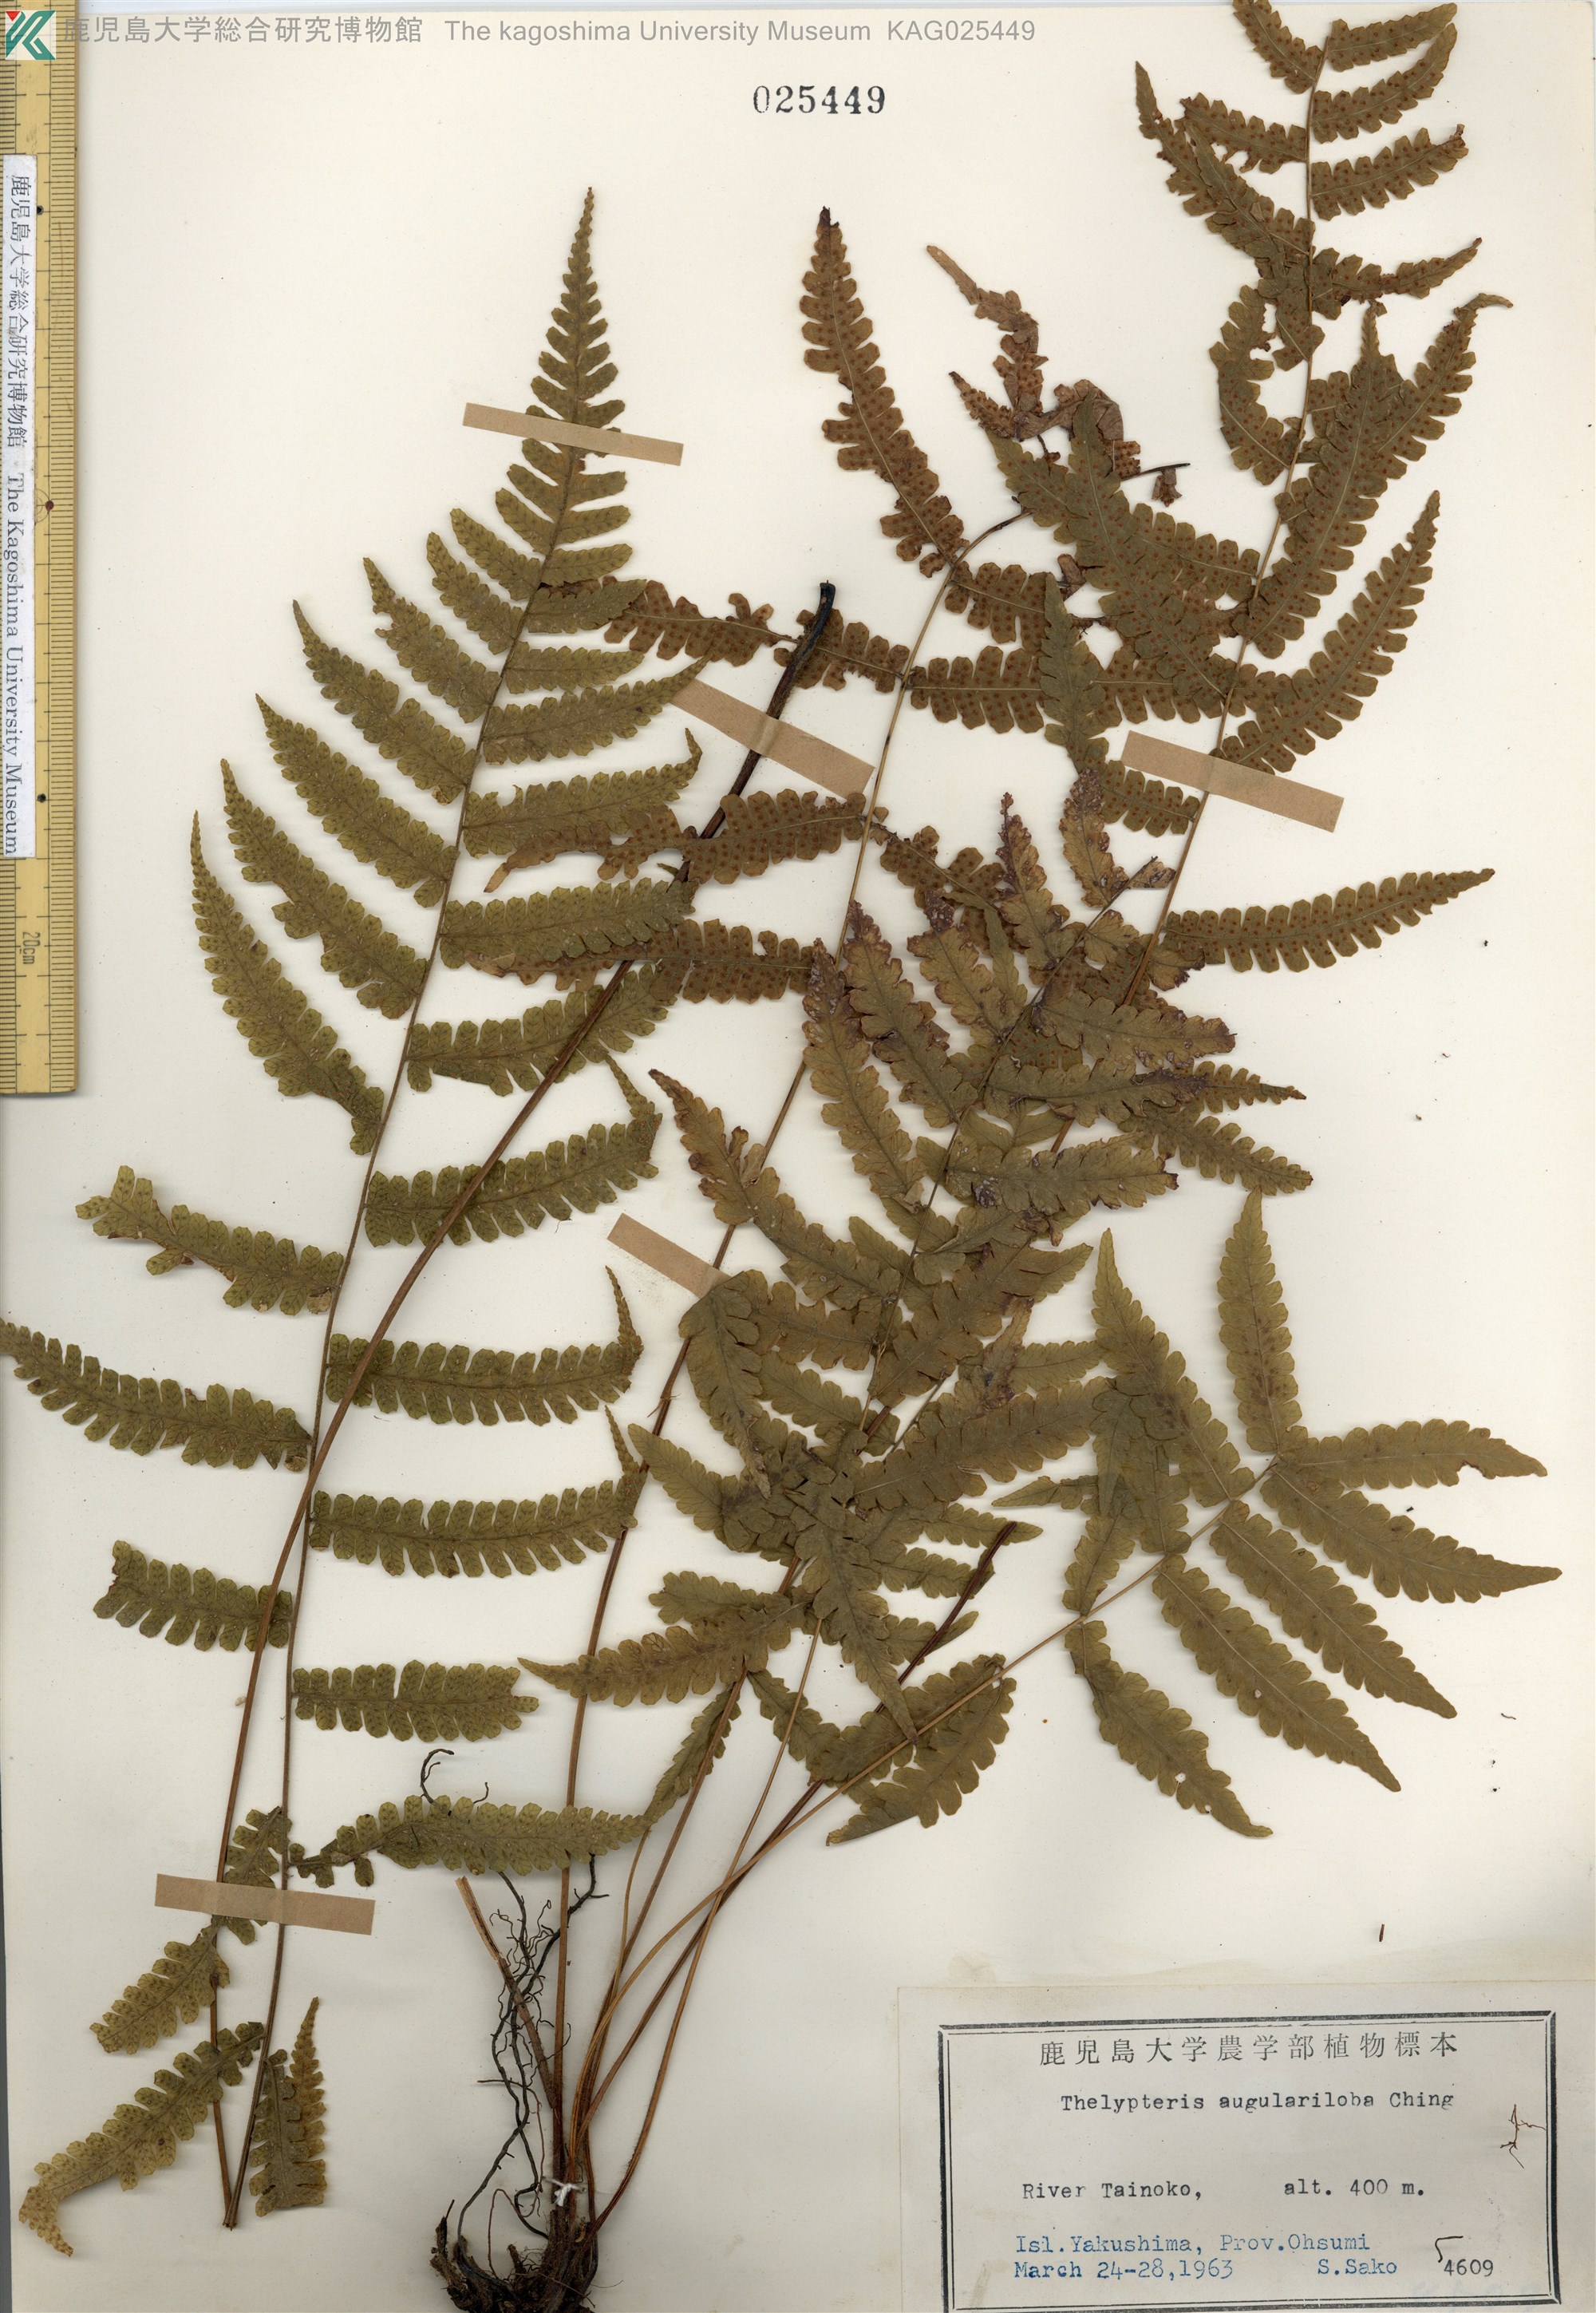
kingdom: Plantae
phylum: Tracheophyta
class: Polypodiopsida
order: Polypodiales
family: Thelypteridaceae
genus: Coryphopteris
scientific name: Coryphopteris hirsutipes
